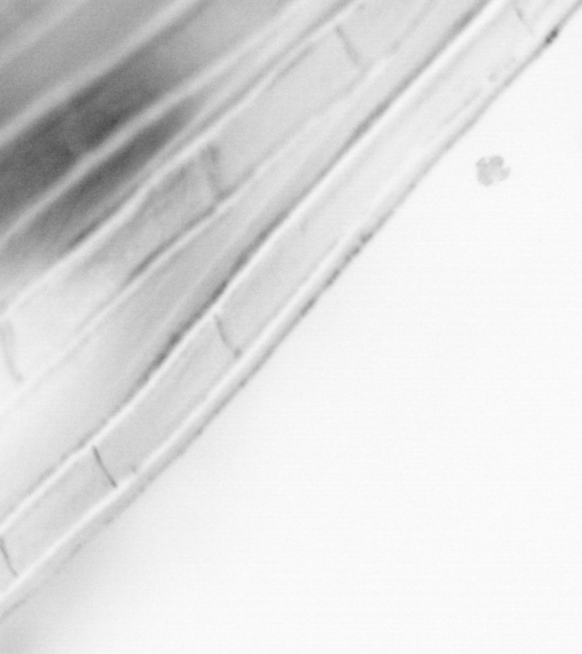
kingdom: Animalia
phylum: Chordata
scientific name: Chordata
